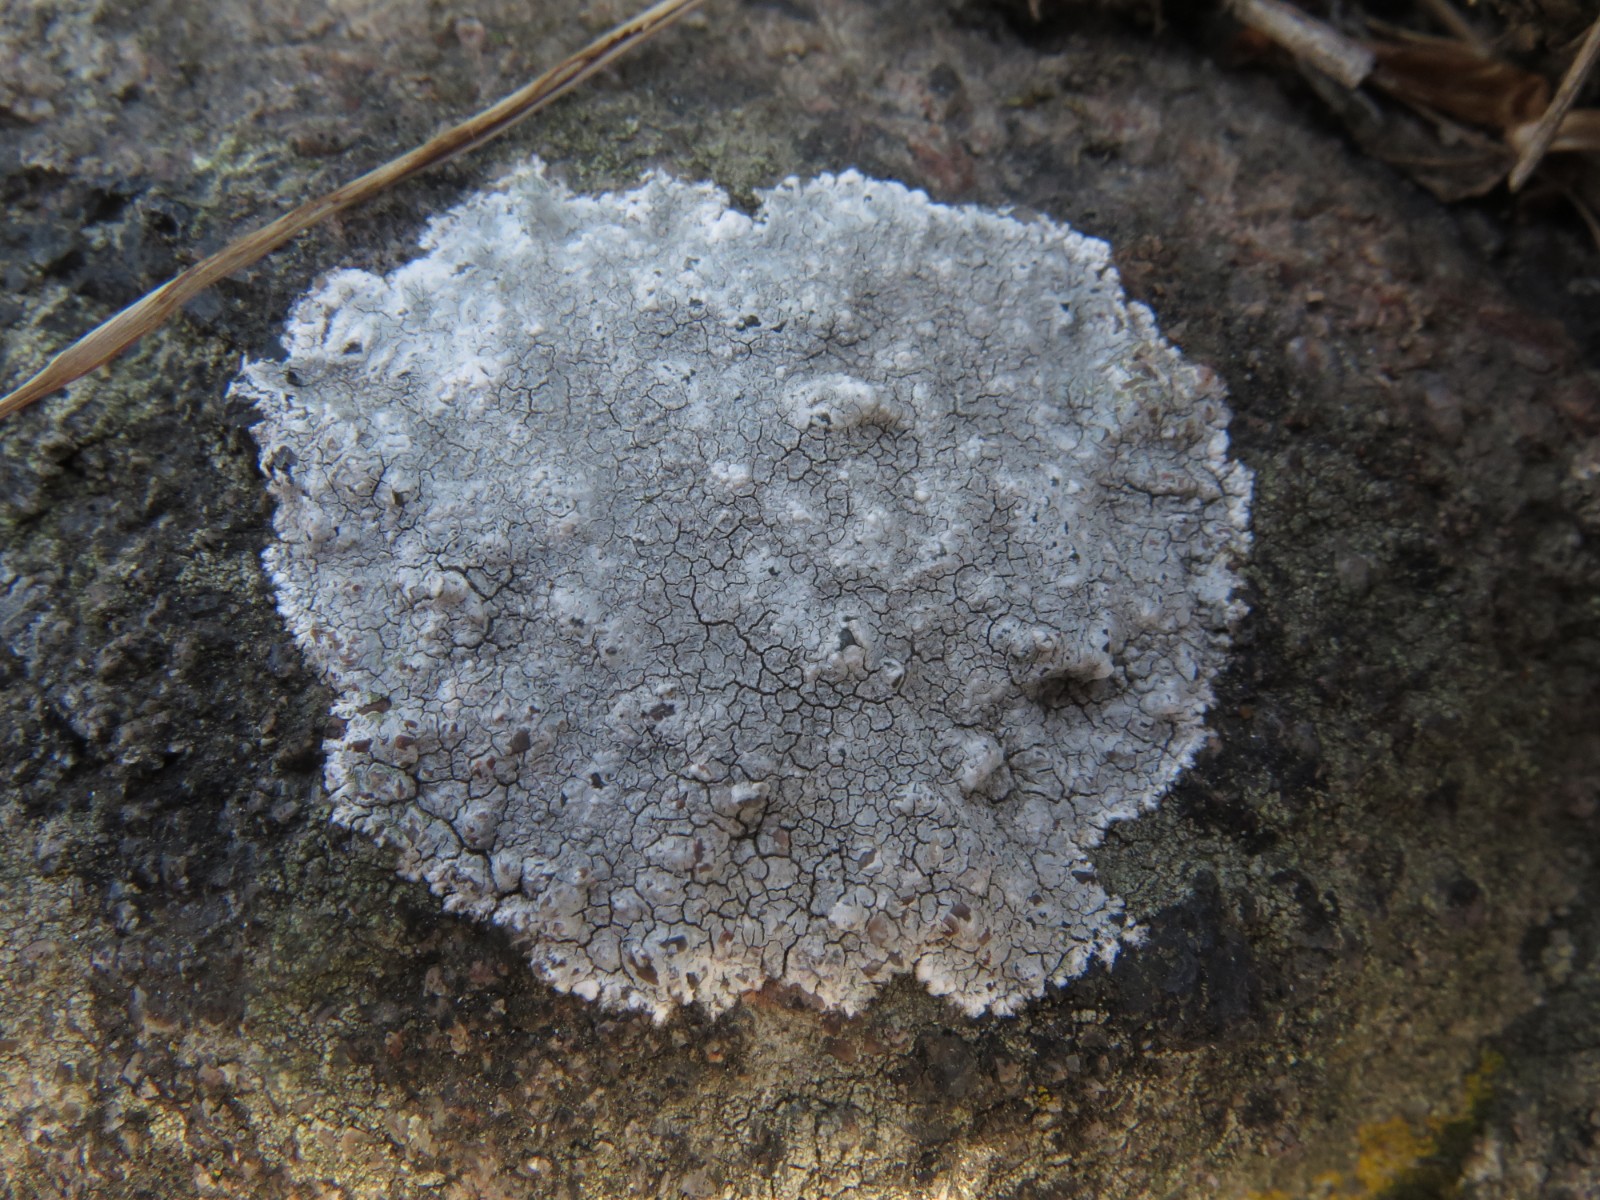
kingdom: Fungi
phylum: Ascomycota
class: Lecanoromycetes
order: Lecanorales
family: Lecanoraceae
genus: Glaucomaria
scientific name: Glaucomaria rupicola
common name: stengærde-kantskivelav
